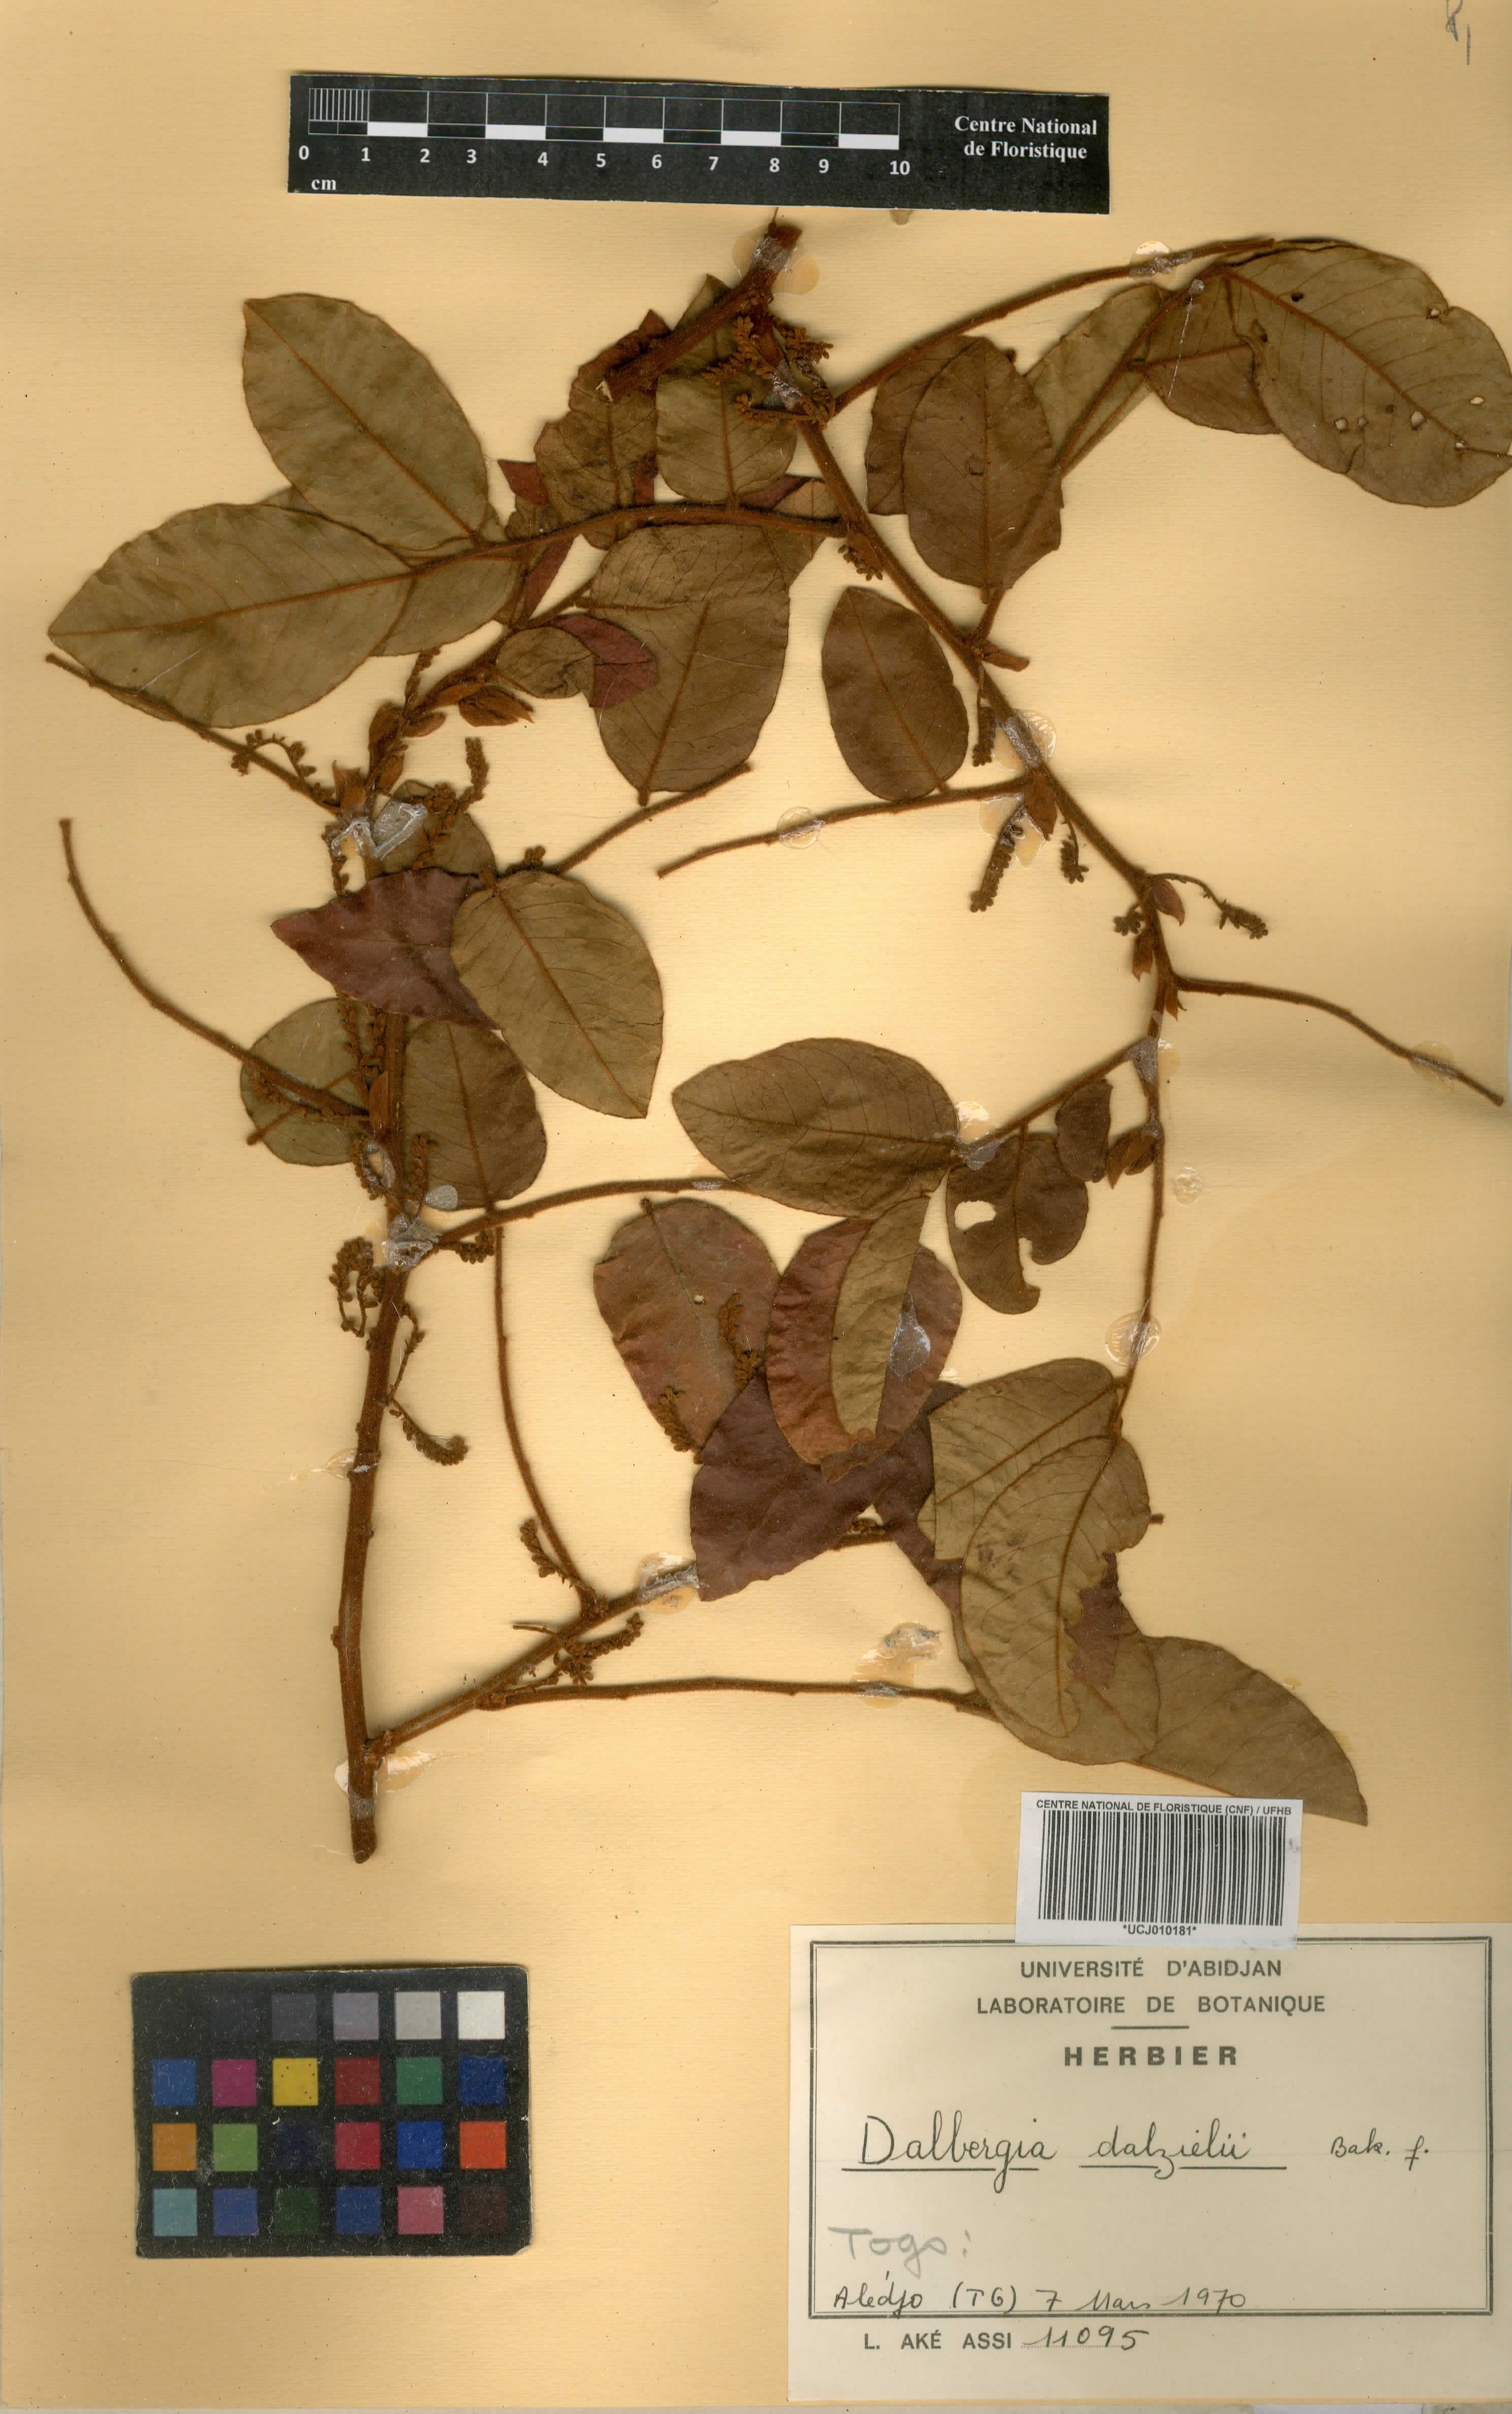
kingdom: Plantae
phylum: Tracheophyta
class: Magnoliopsida
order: Fabales
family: Fabaceae
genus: Dalbergia
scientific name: Dalbergia dalzielii ex
